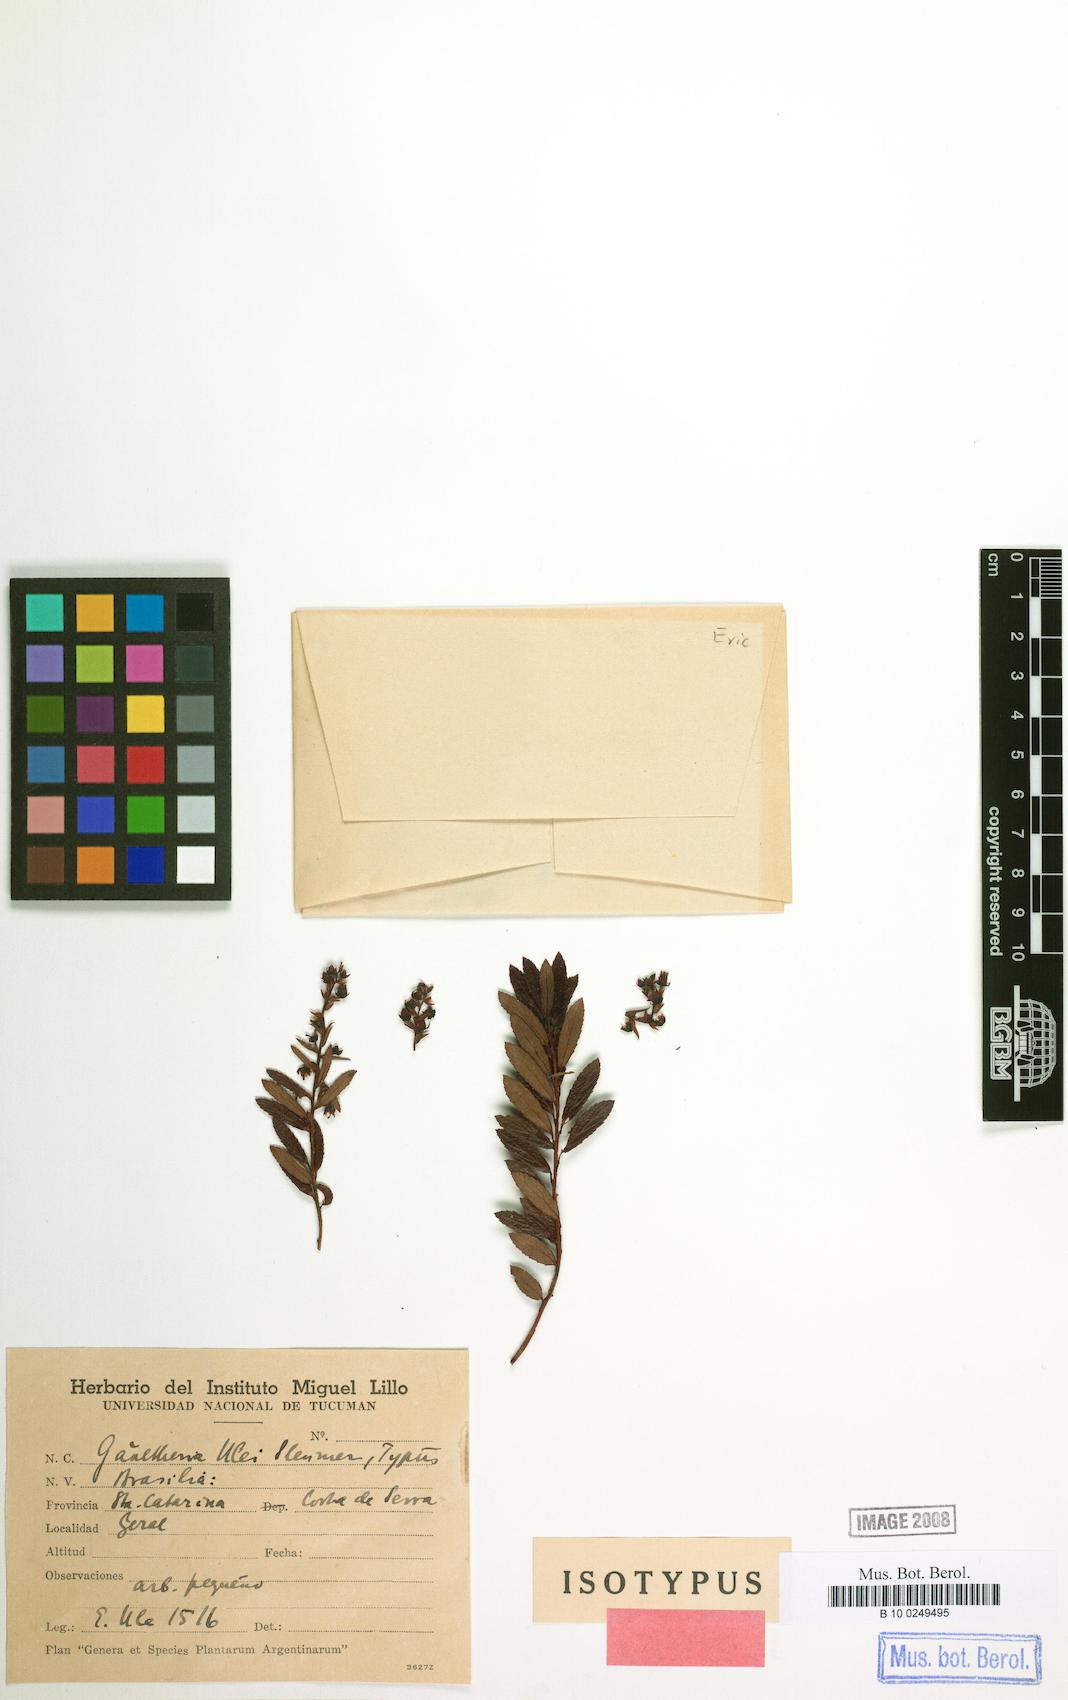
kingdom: Plantae
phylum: Tracheophyta
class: Magnoliopsida
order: Ericales
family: Ericaceae
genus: Gaultheria
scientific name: Gaultheria ulei
